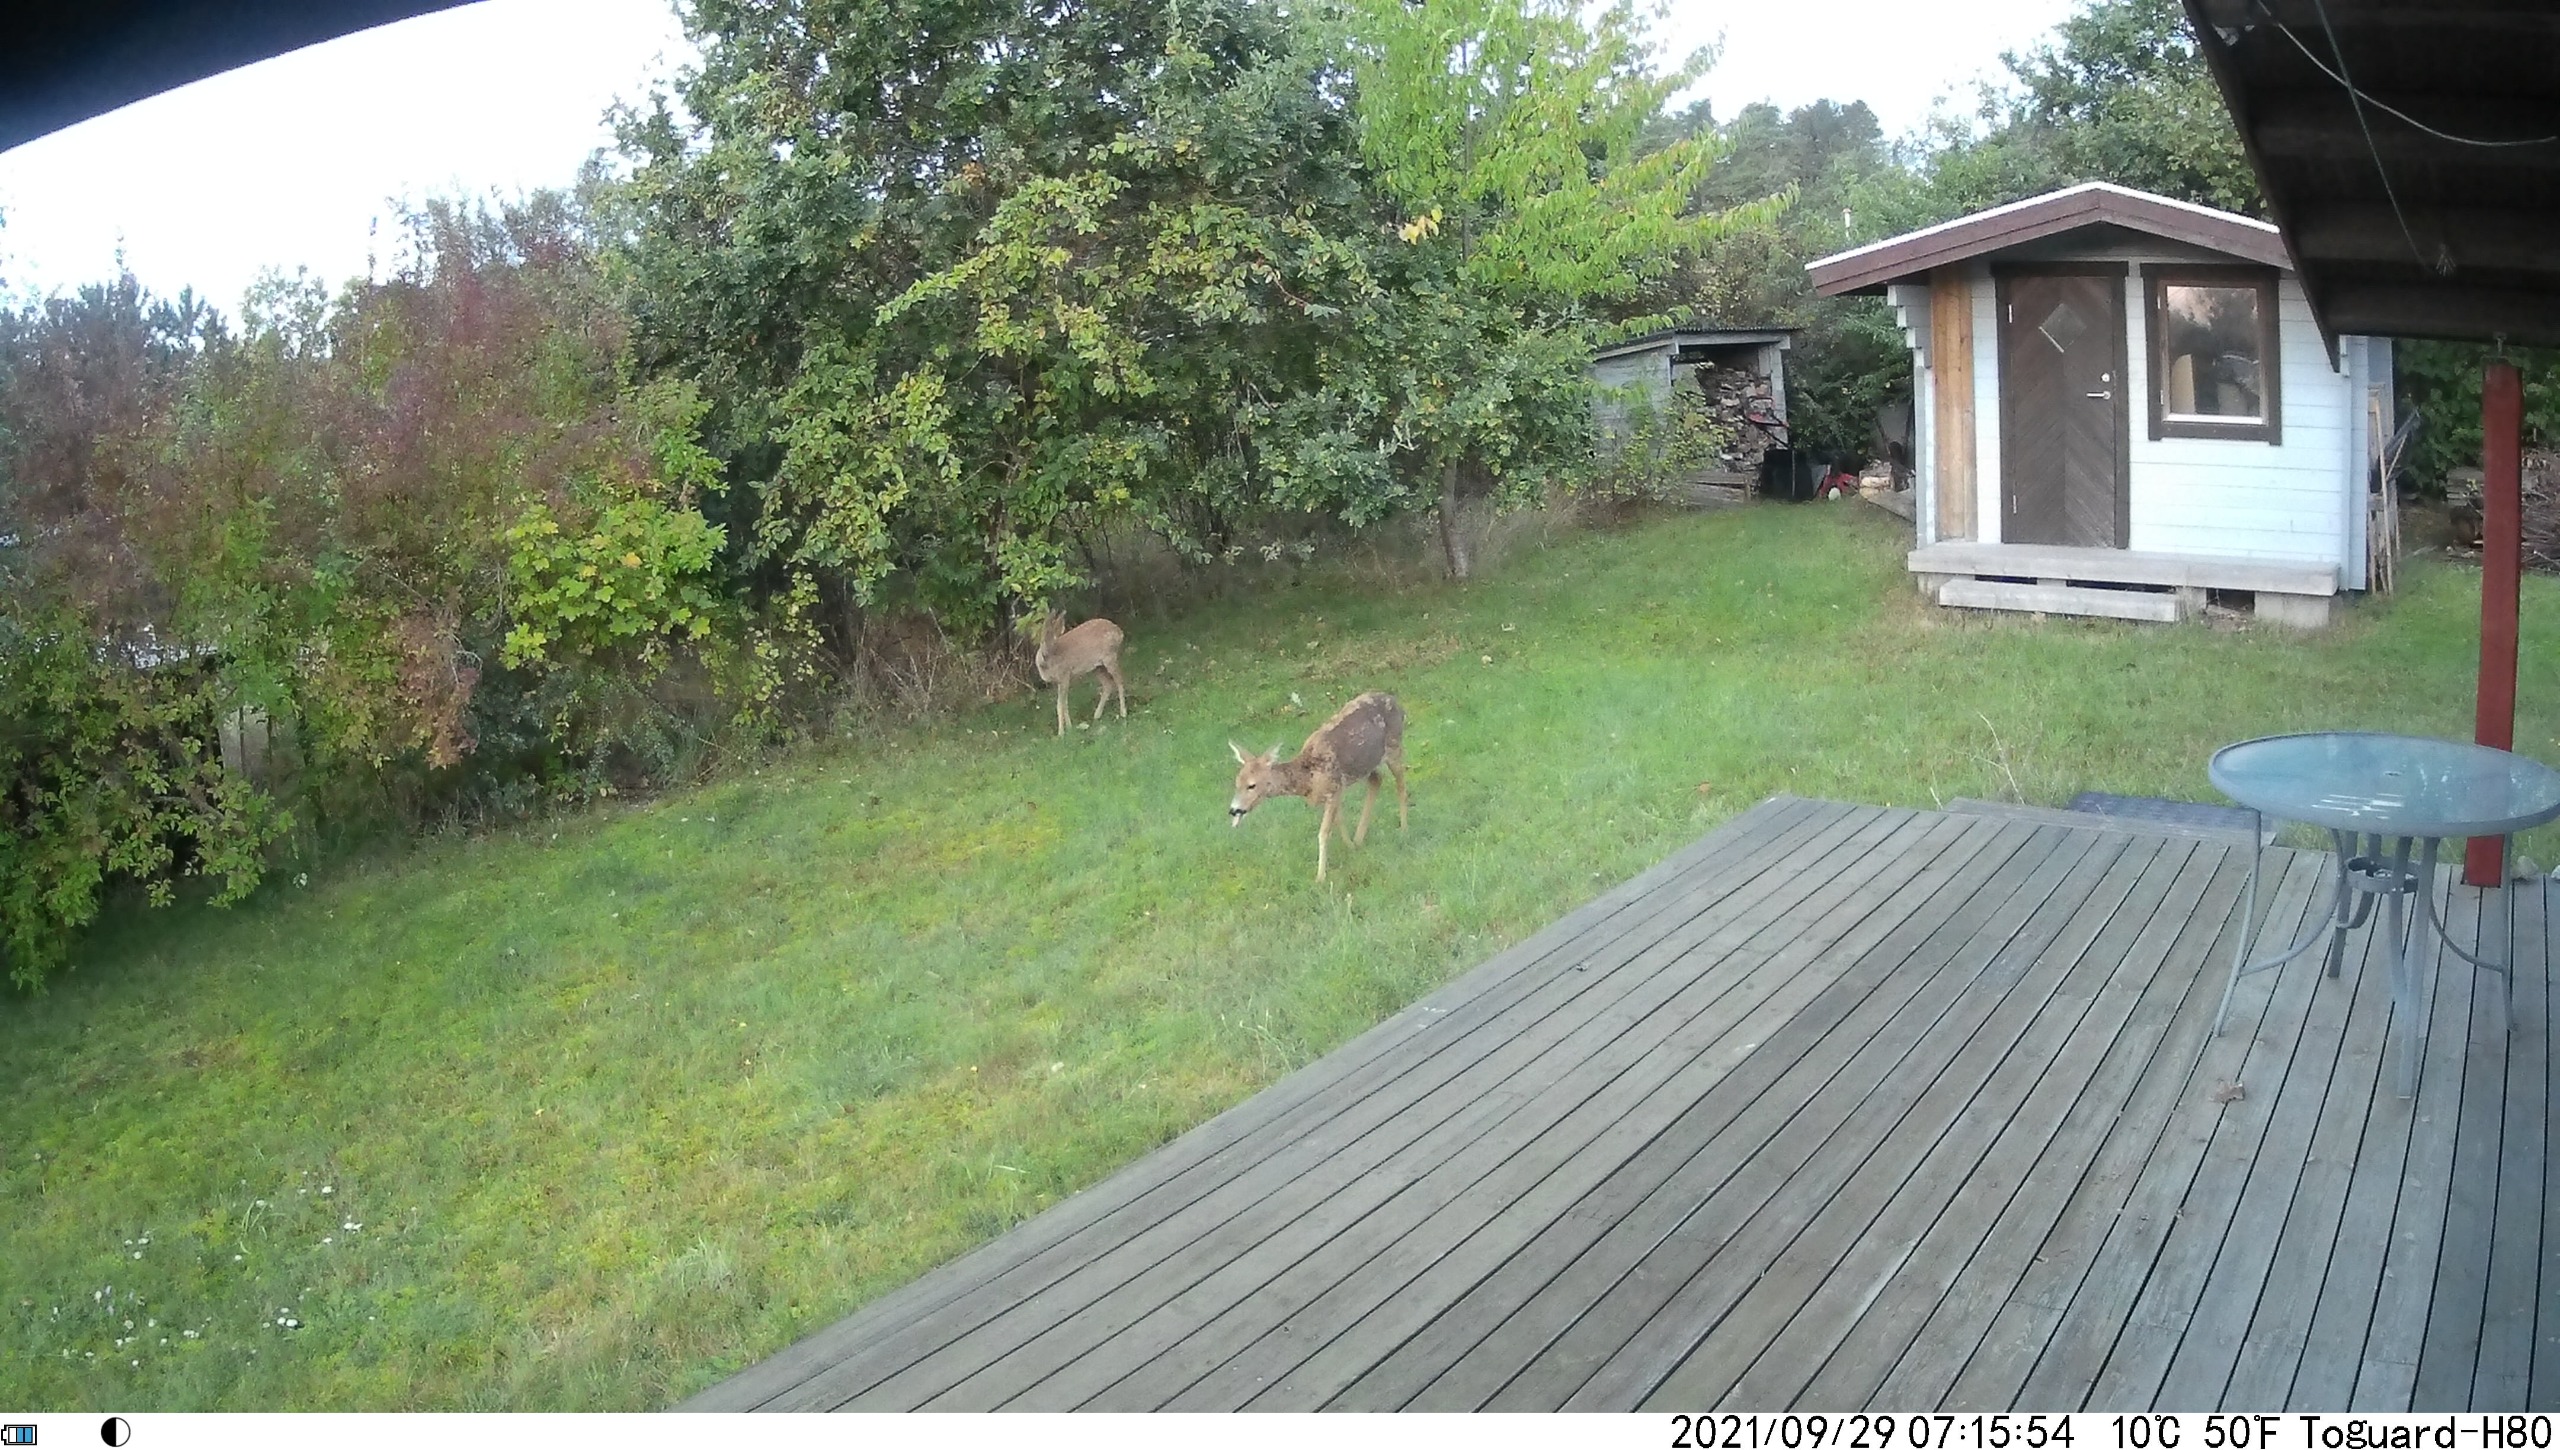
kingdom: Animalia
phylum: Chordata
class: Mammalia
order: Artiodactyla
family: Cervidae
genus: Capreolus
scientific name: Capreolus capreolus
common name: Rådyr
